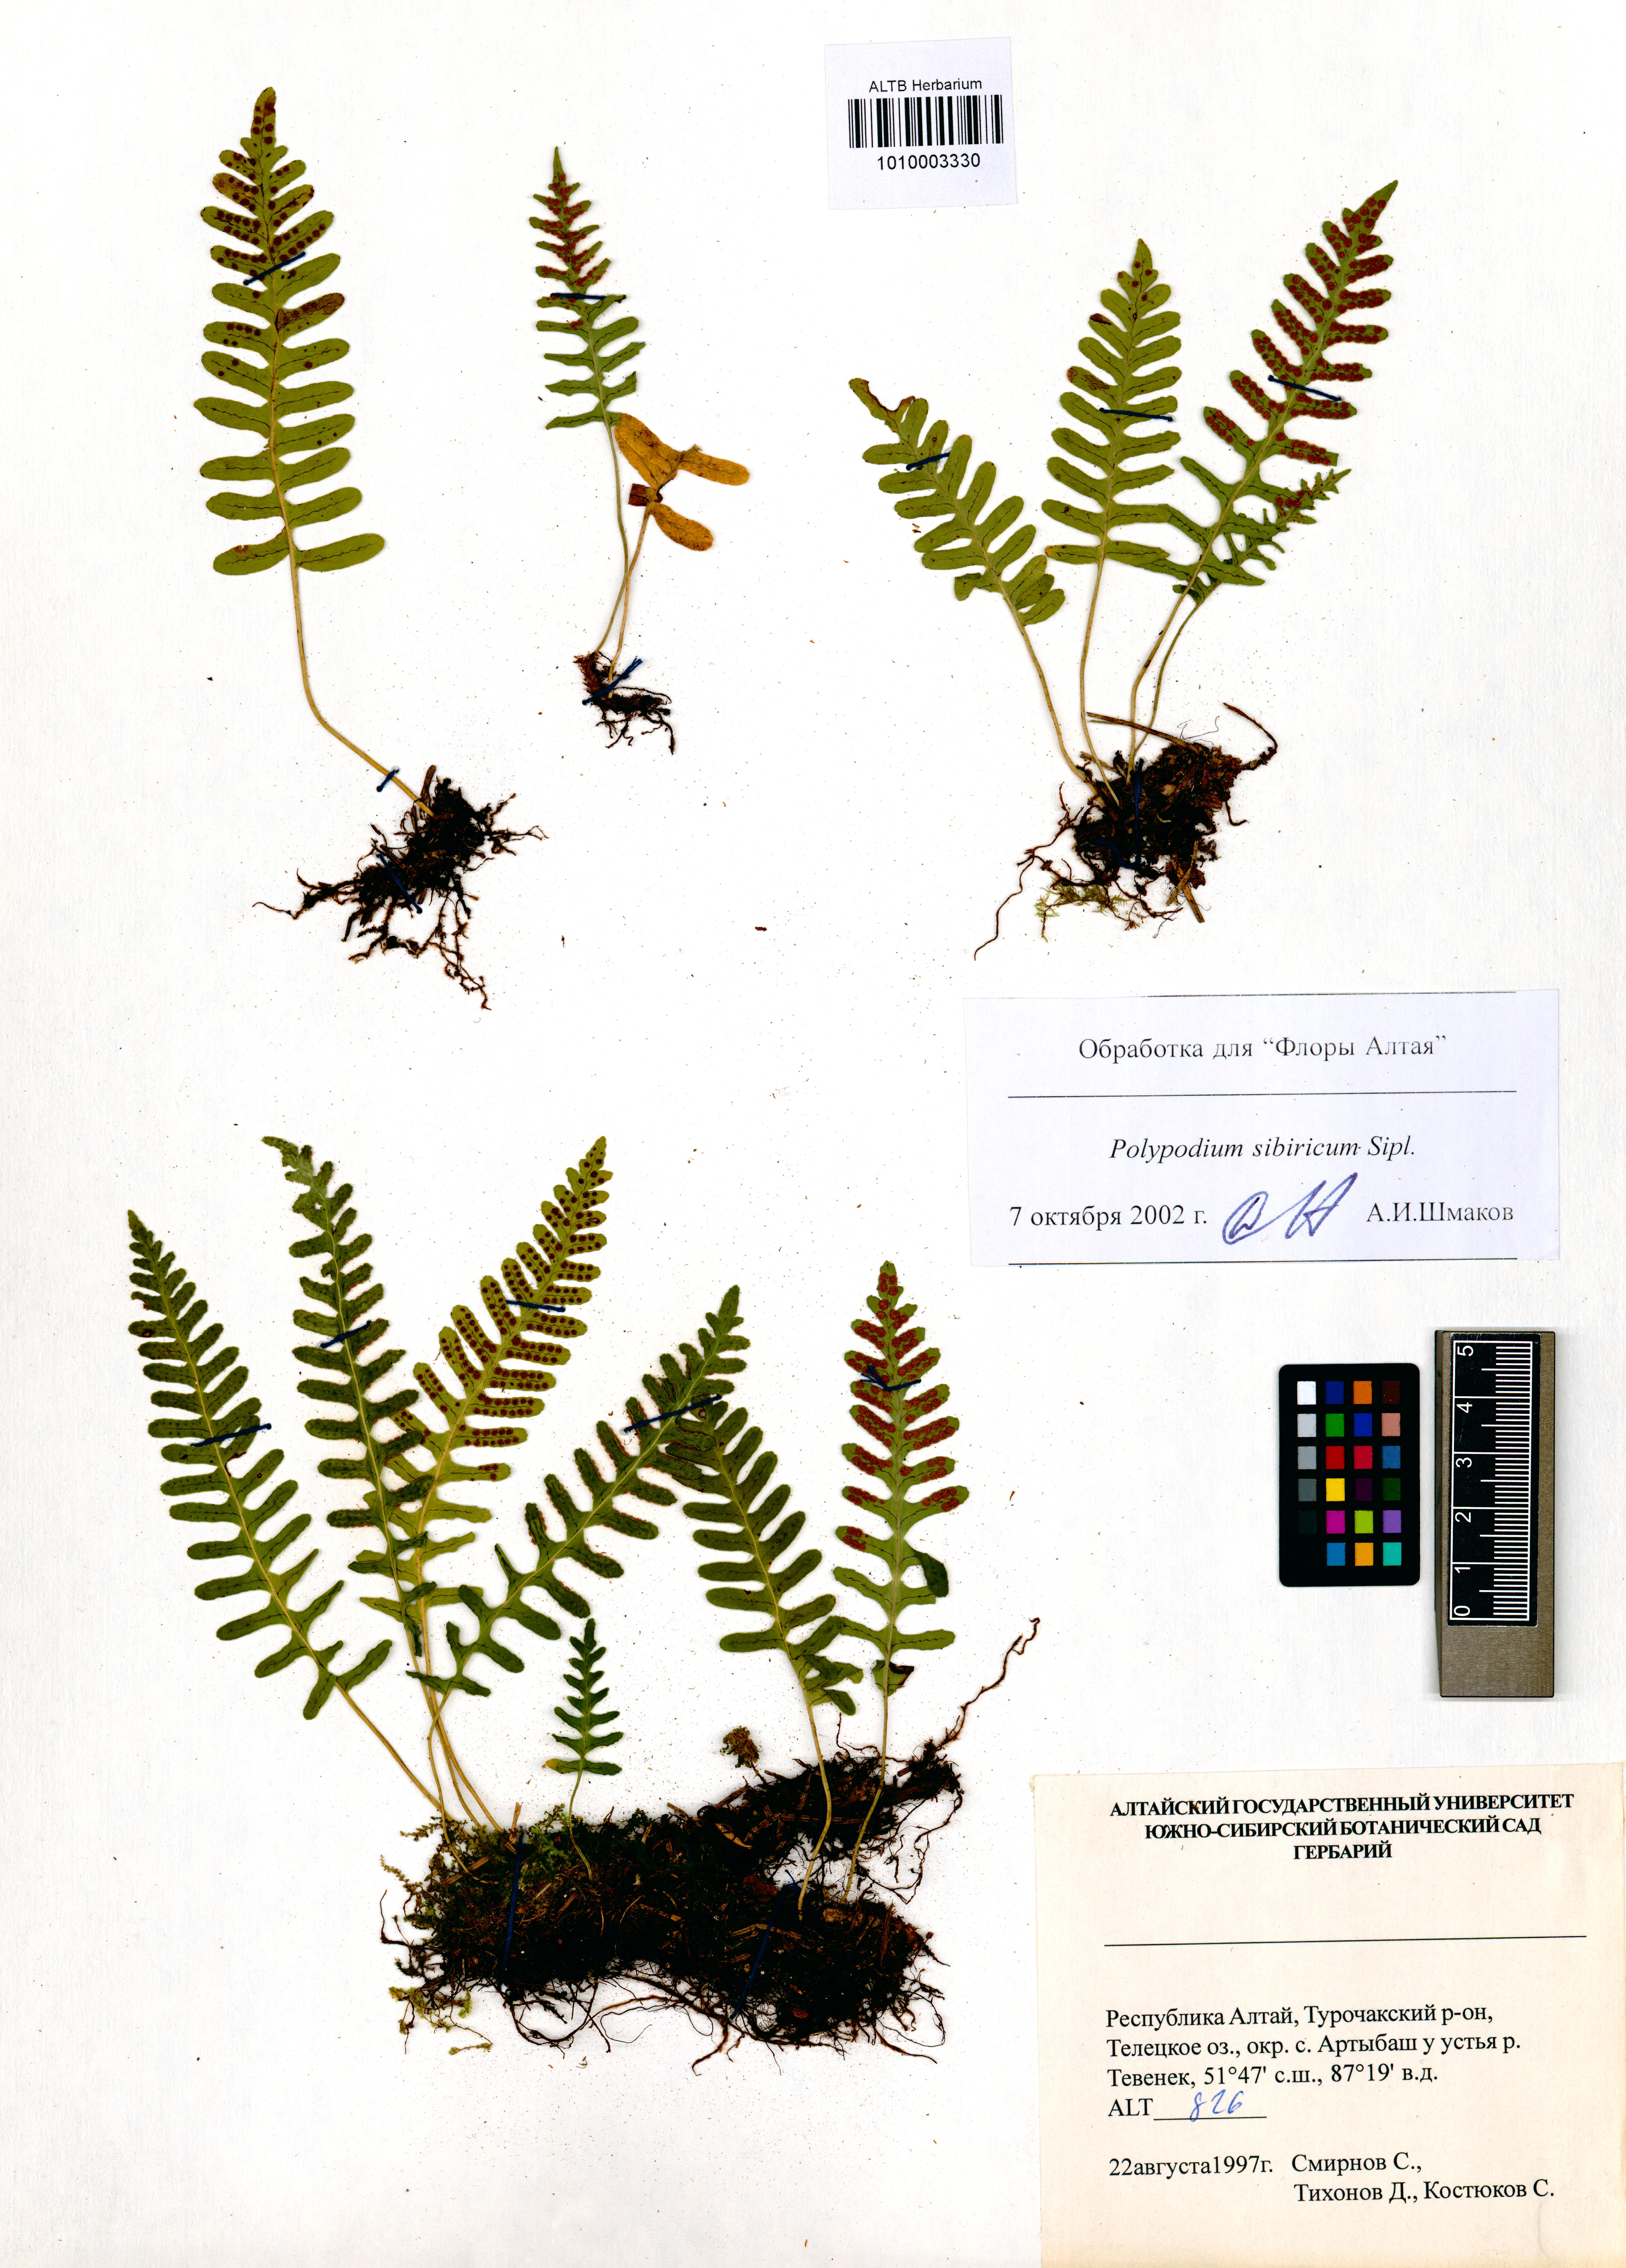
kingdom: Plantae
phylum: Tracheophyta
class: Polypodiopsida
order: Polypodiales
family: Polypodiaceae
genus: Polypodium
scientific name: Polypodium sibiricum
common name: Siberian polypody
